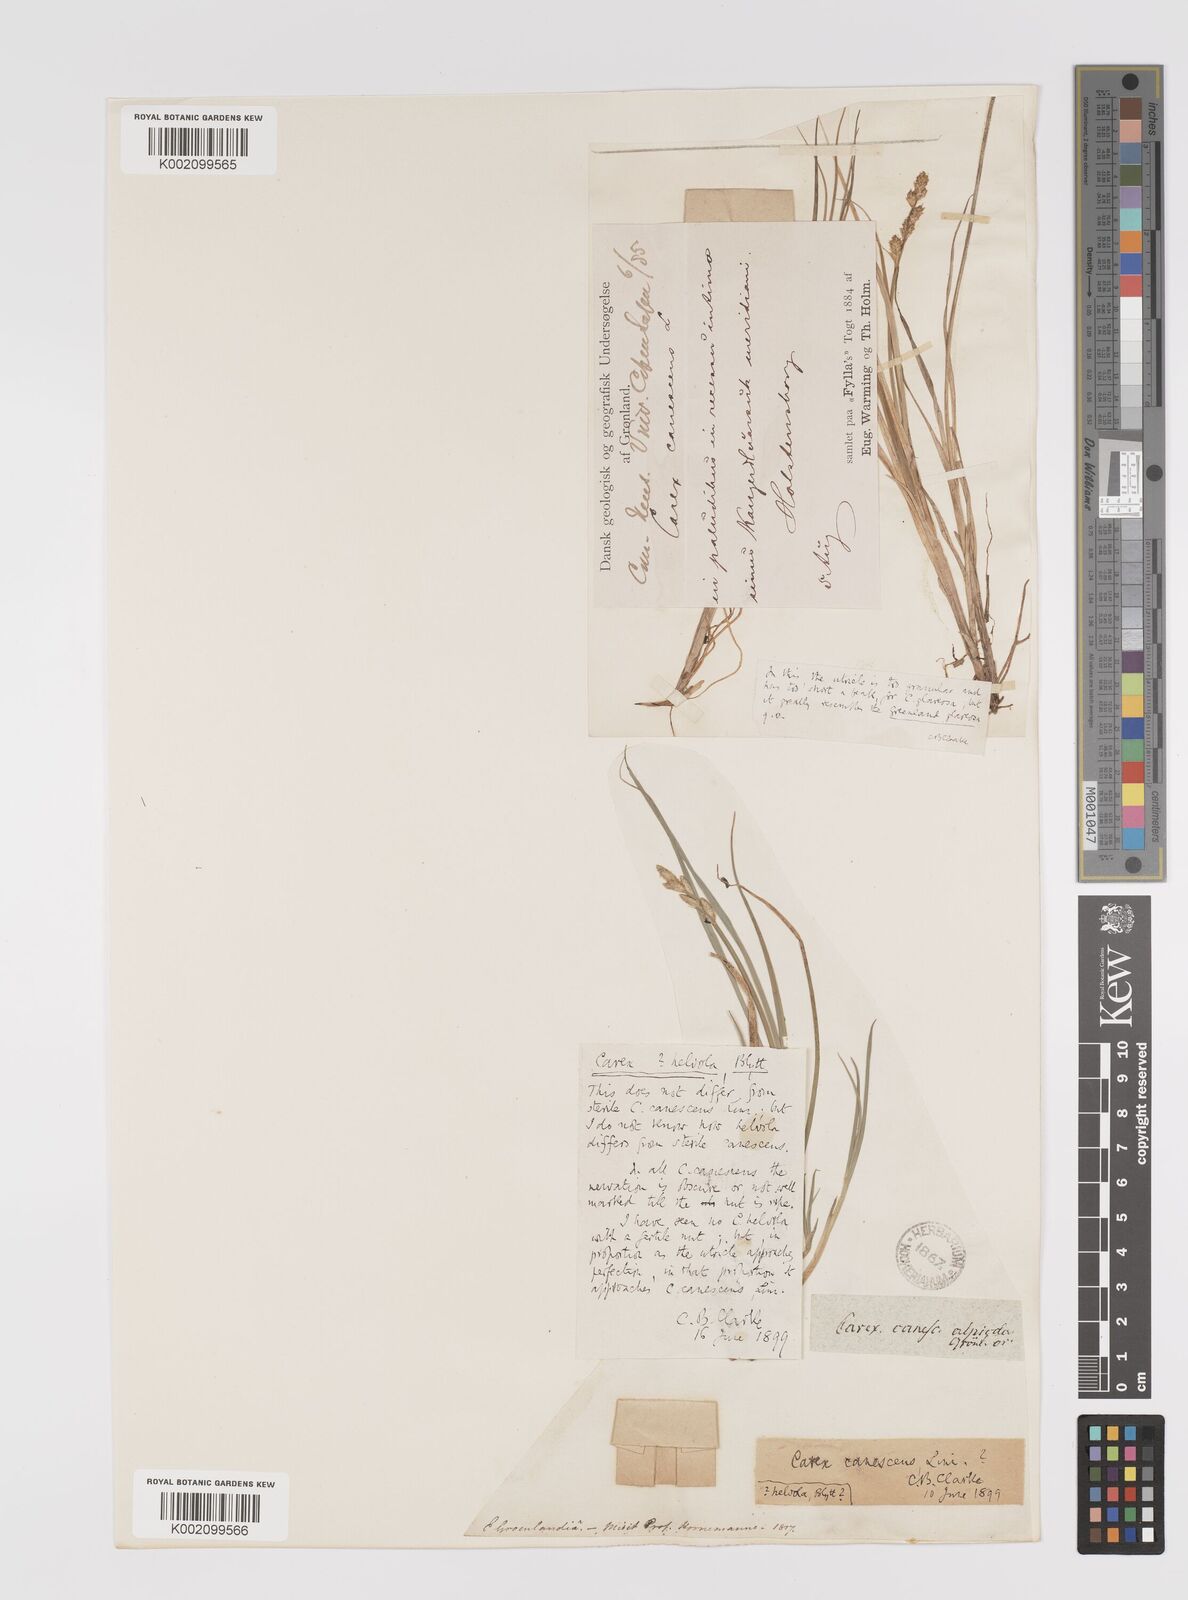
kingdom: Plantae
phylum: Tracheophyta
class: Liliopsida
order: Poales
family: Cyperaceae
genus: Carex
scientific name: Carex helvola
